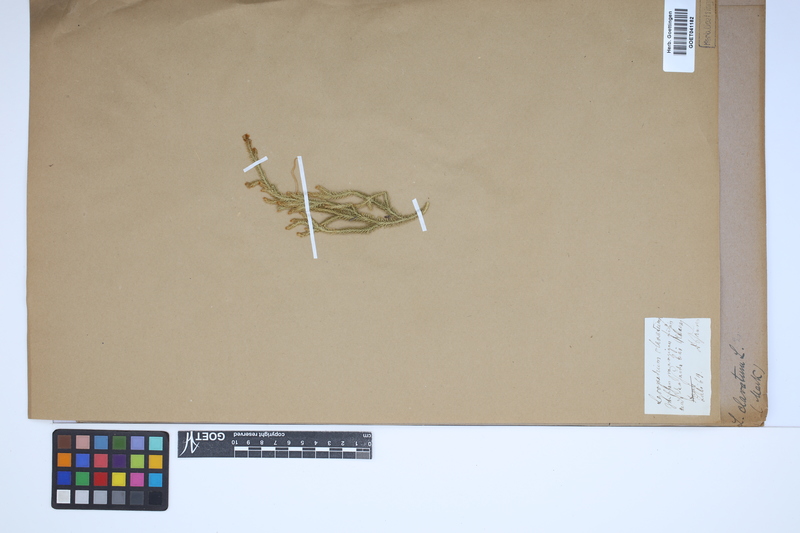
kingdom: Plantae
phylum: Tracheophyta
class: Lycopodiopsida
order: Lycopodiales
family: Lycopodiaceae
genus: Lycopodium
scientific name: Lycopodium clavatum
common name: Stag's-horn clubmoss
